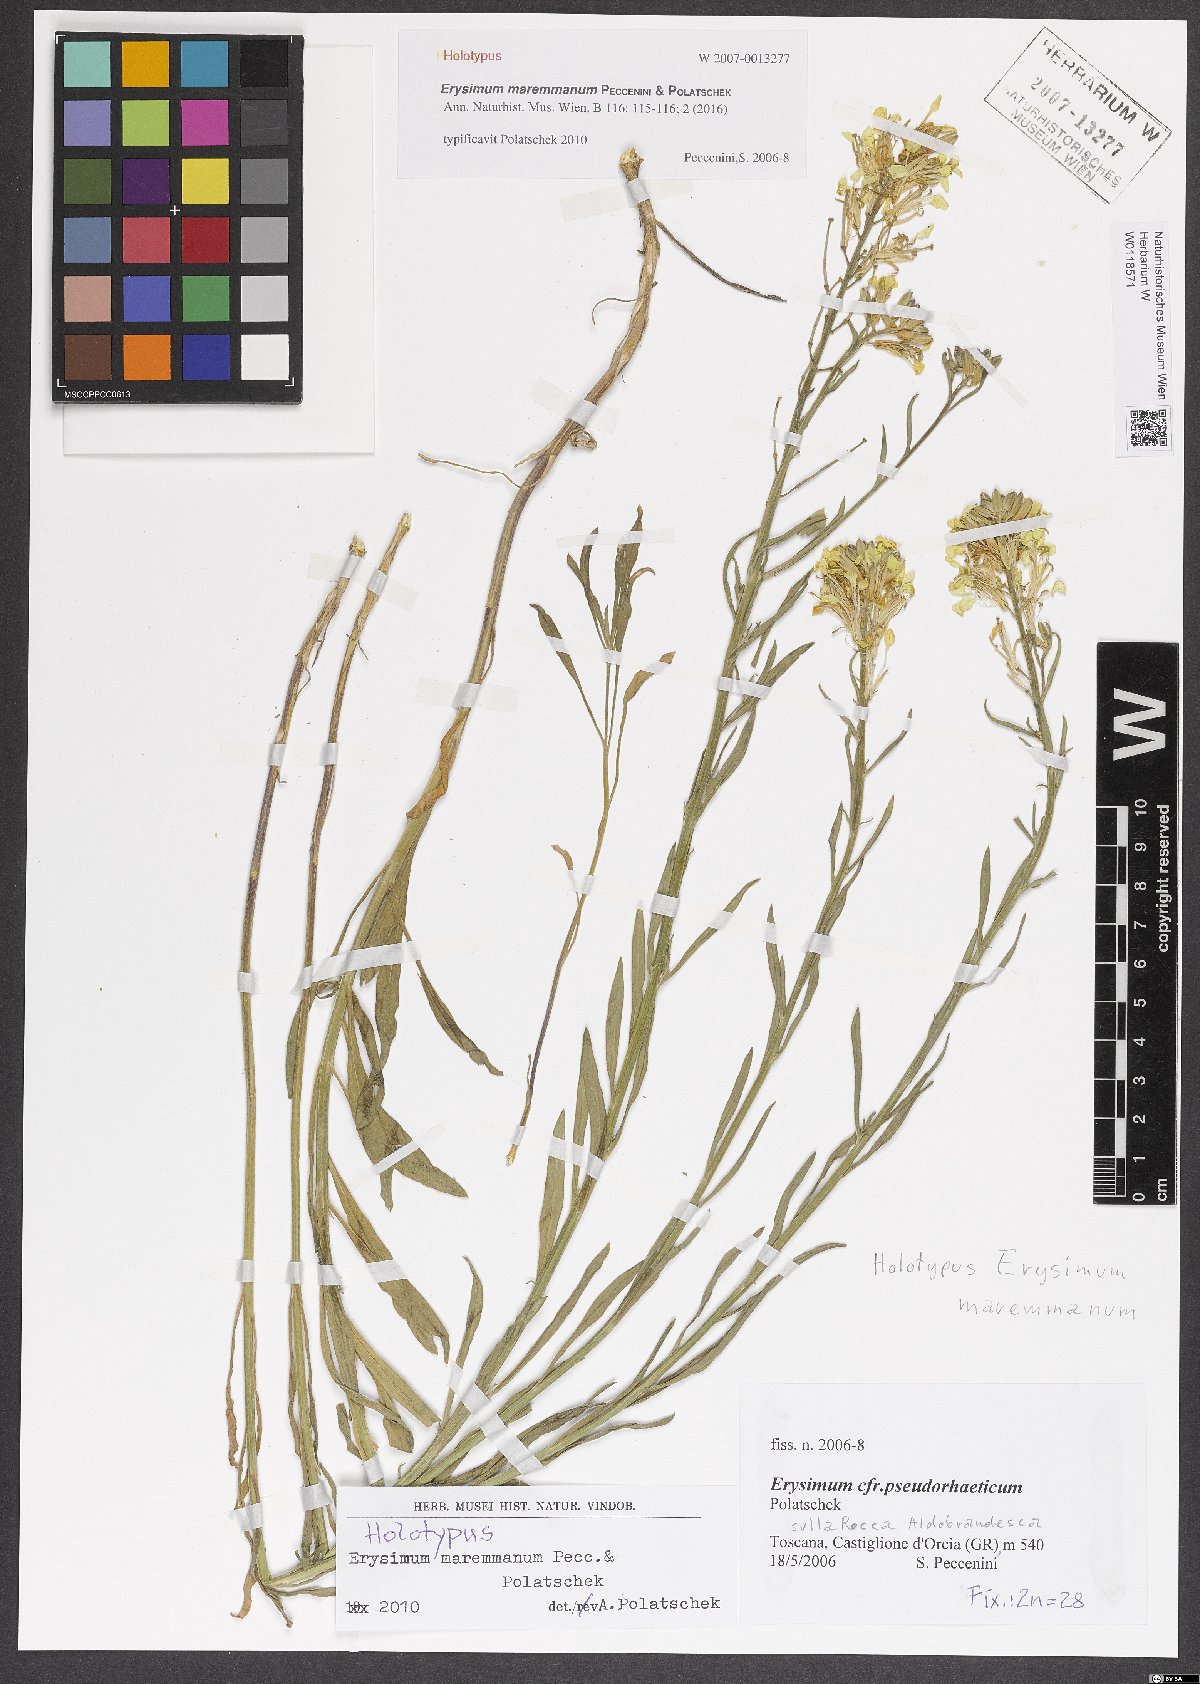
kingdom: Plantae
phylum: Tracheophyta
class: Magnoliopsida
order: Brassicales
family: Brassicaceae
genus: Erysimum
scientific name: Erysimum maremmanum
